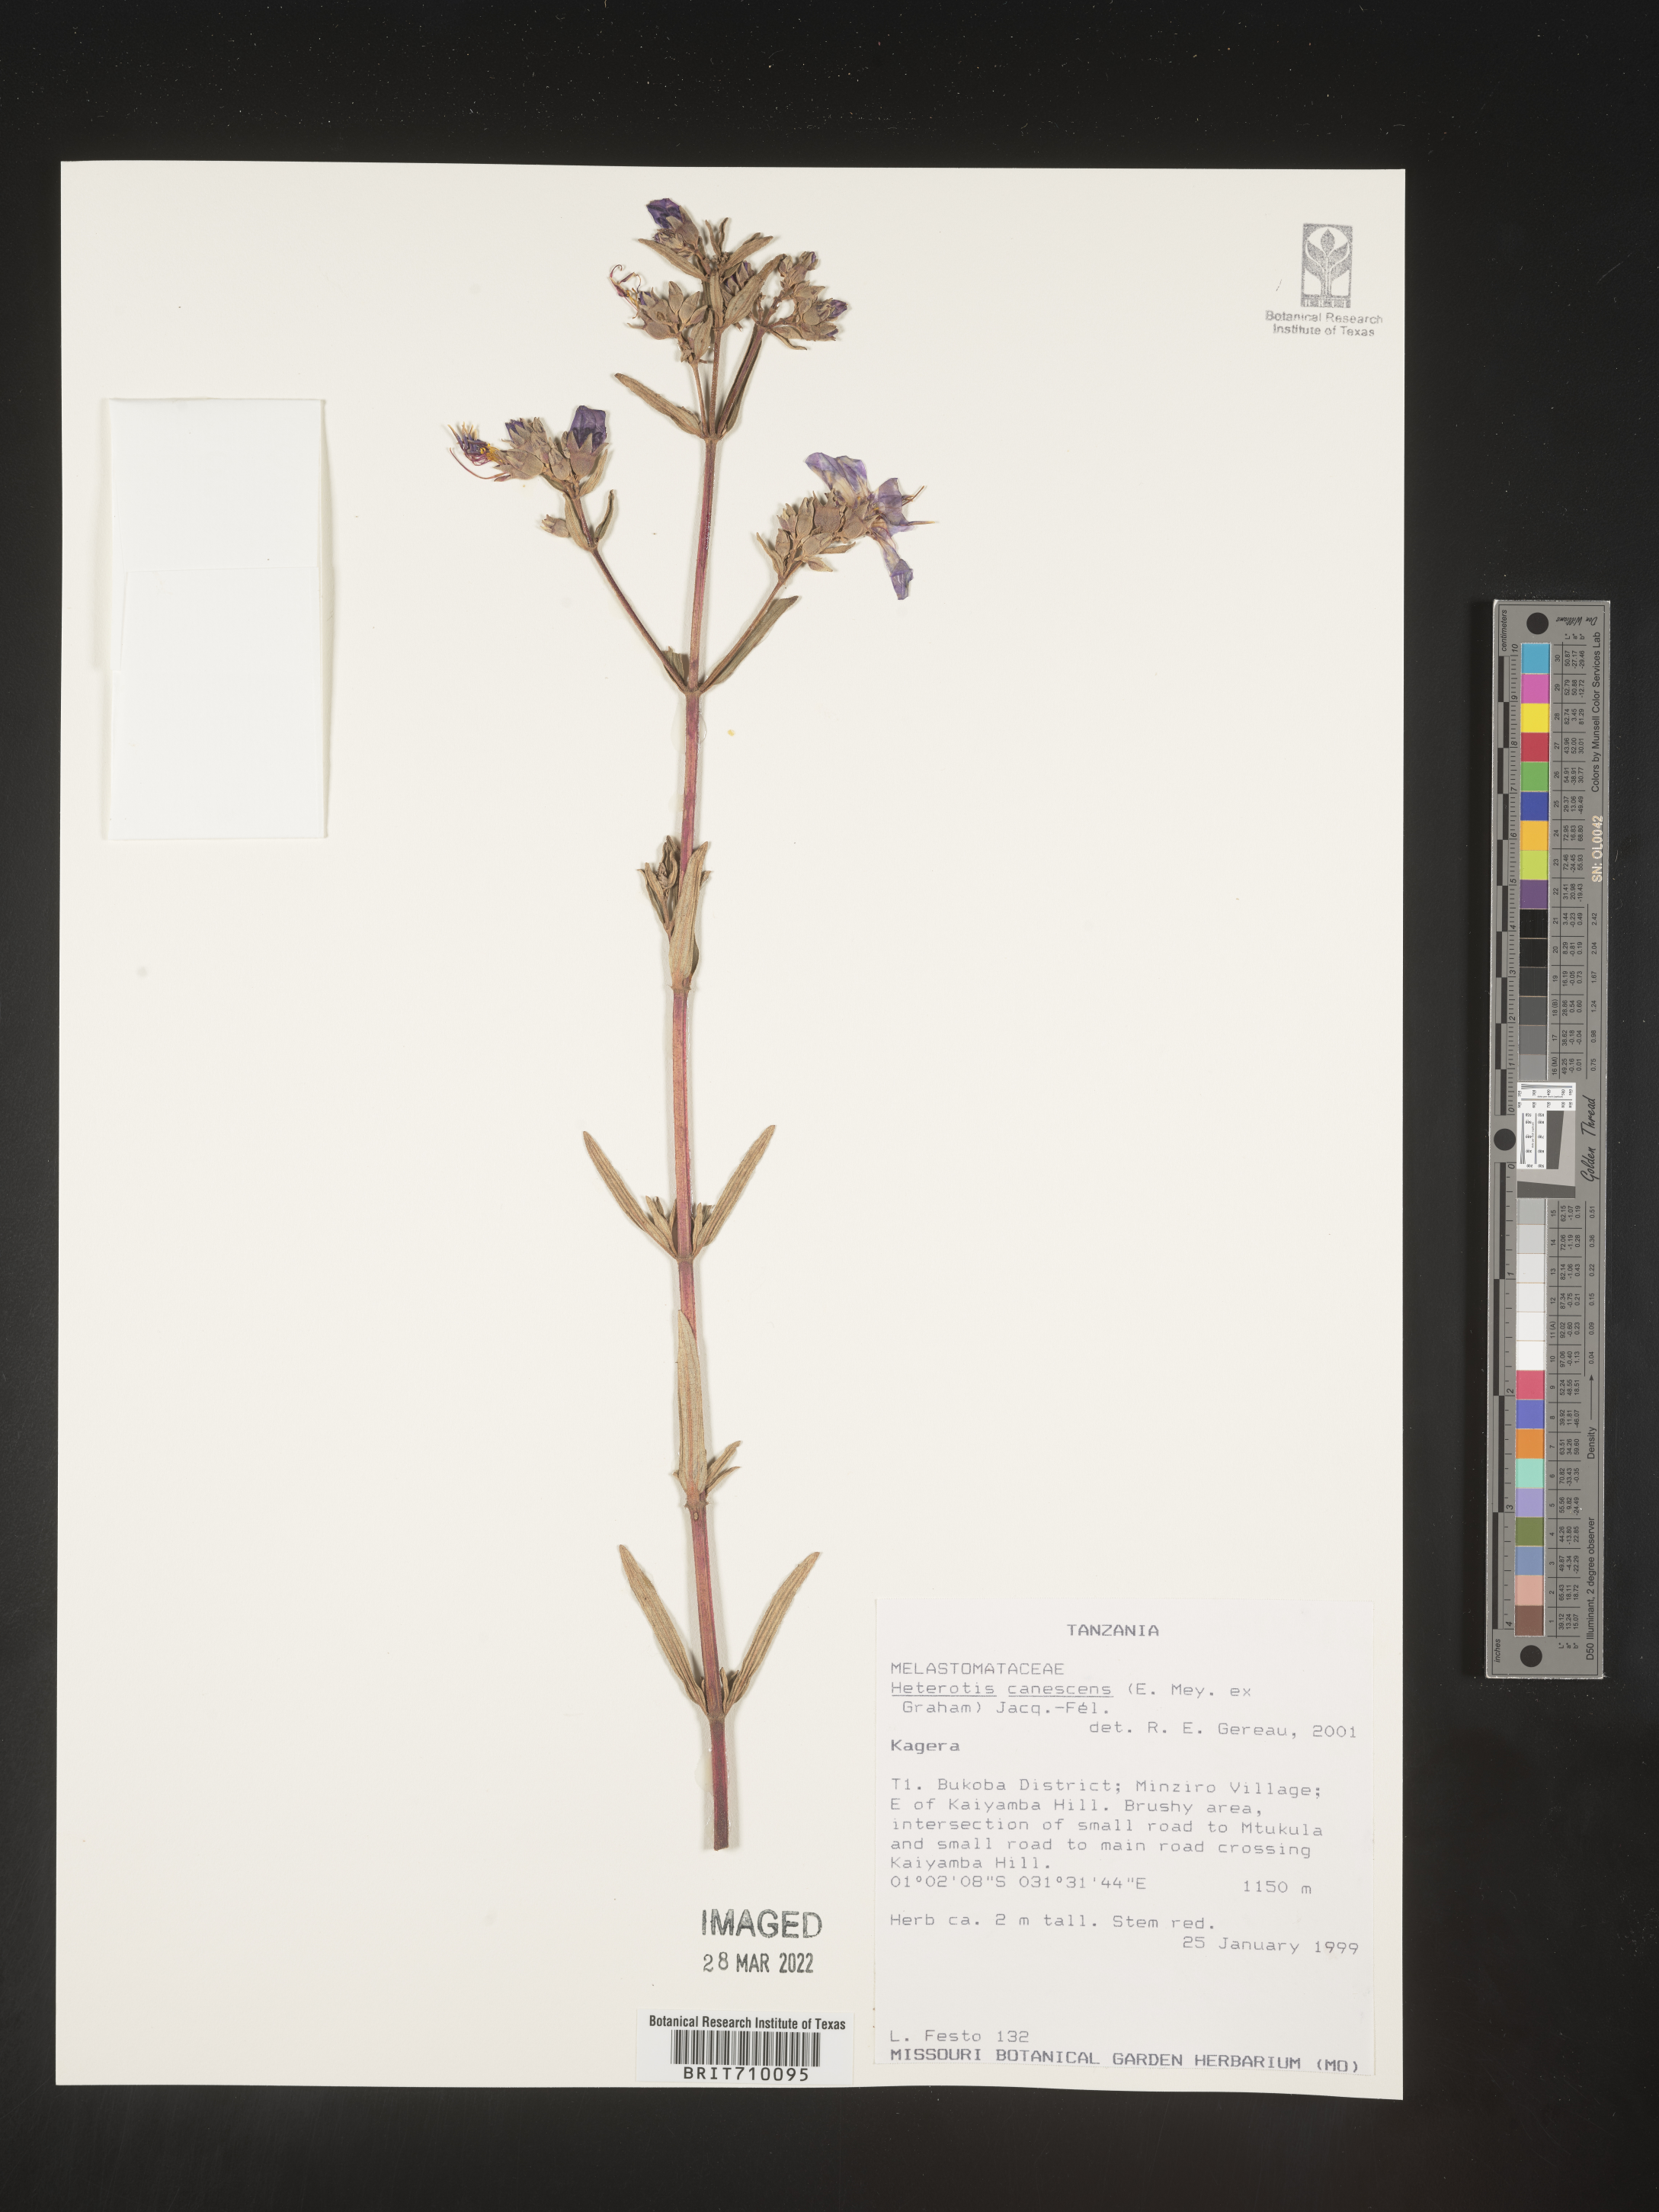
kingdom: Plantae
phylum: Tracheophyta
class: Magnoliopsida
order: Myrtales
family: Melastomataceae
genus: Heterotis
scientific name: Heterotis
